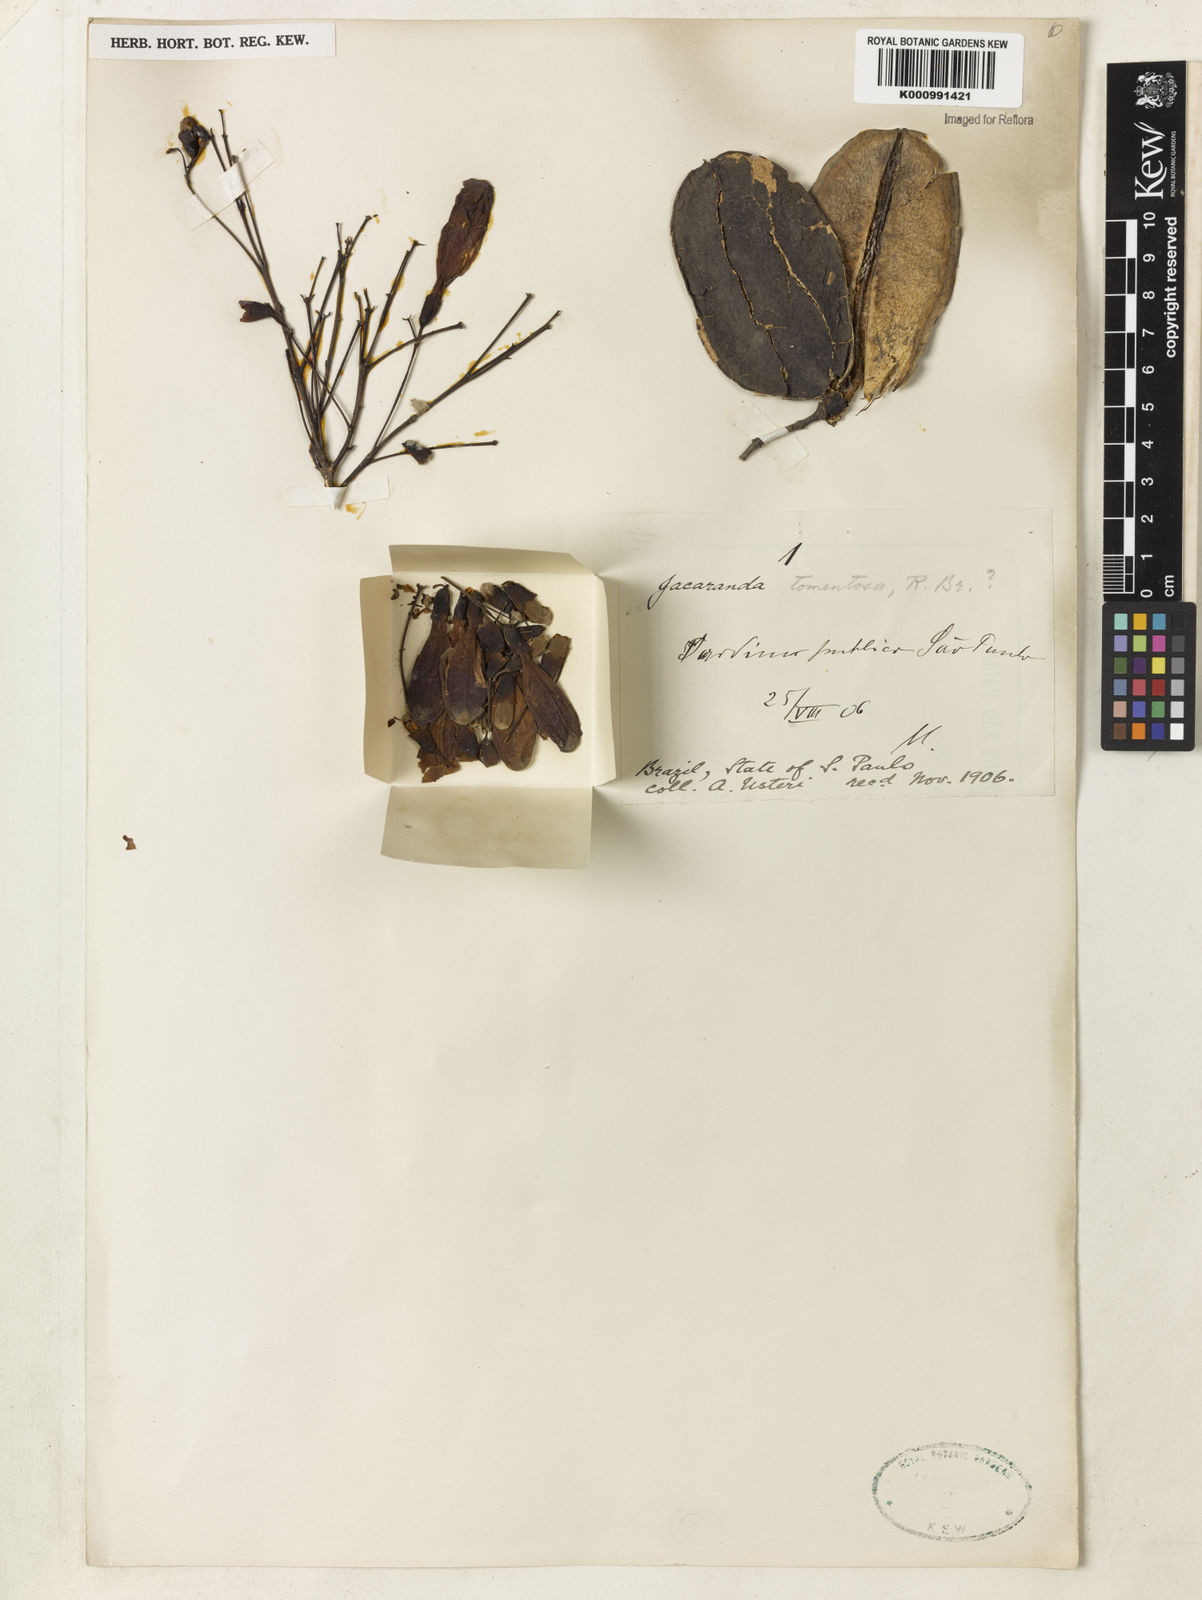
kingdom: Plantae
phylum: Tracheophyta
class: Magnoliopsida
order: Lamiales
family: Bignoniaceae
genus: Jacaranda
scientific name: Jacaranda jasminoides
